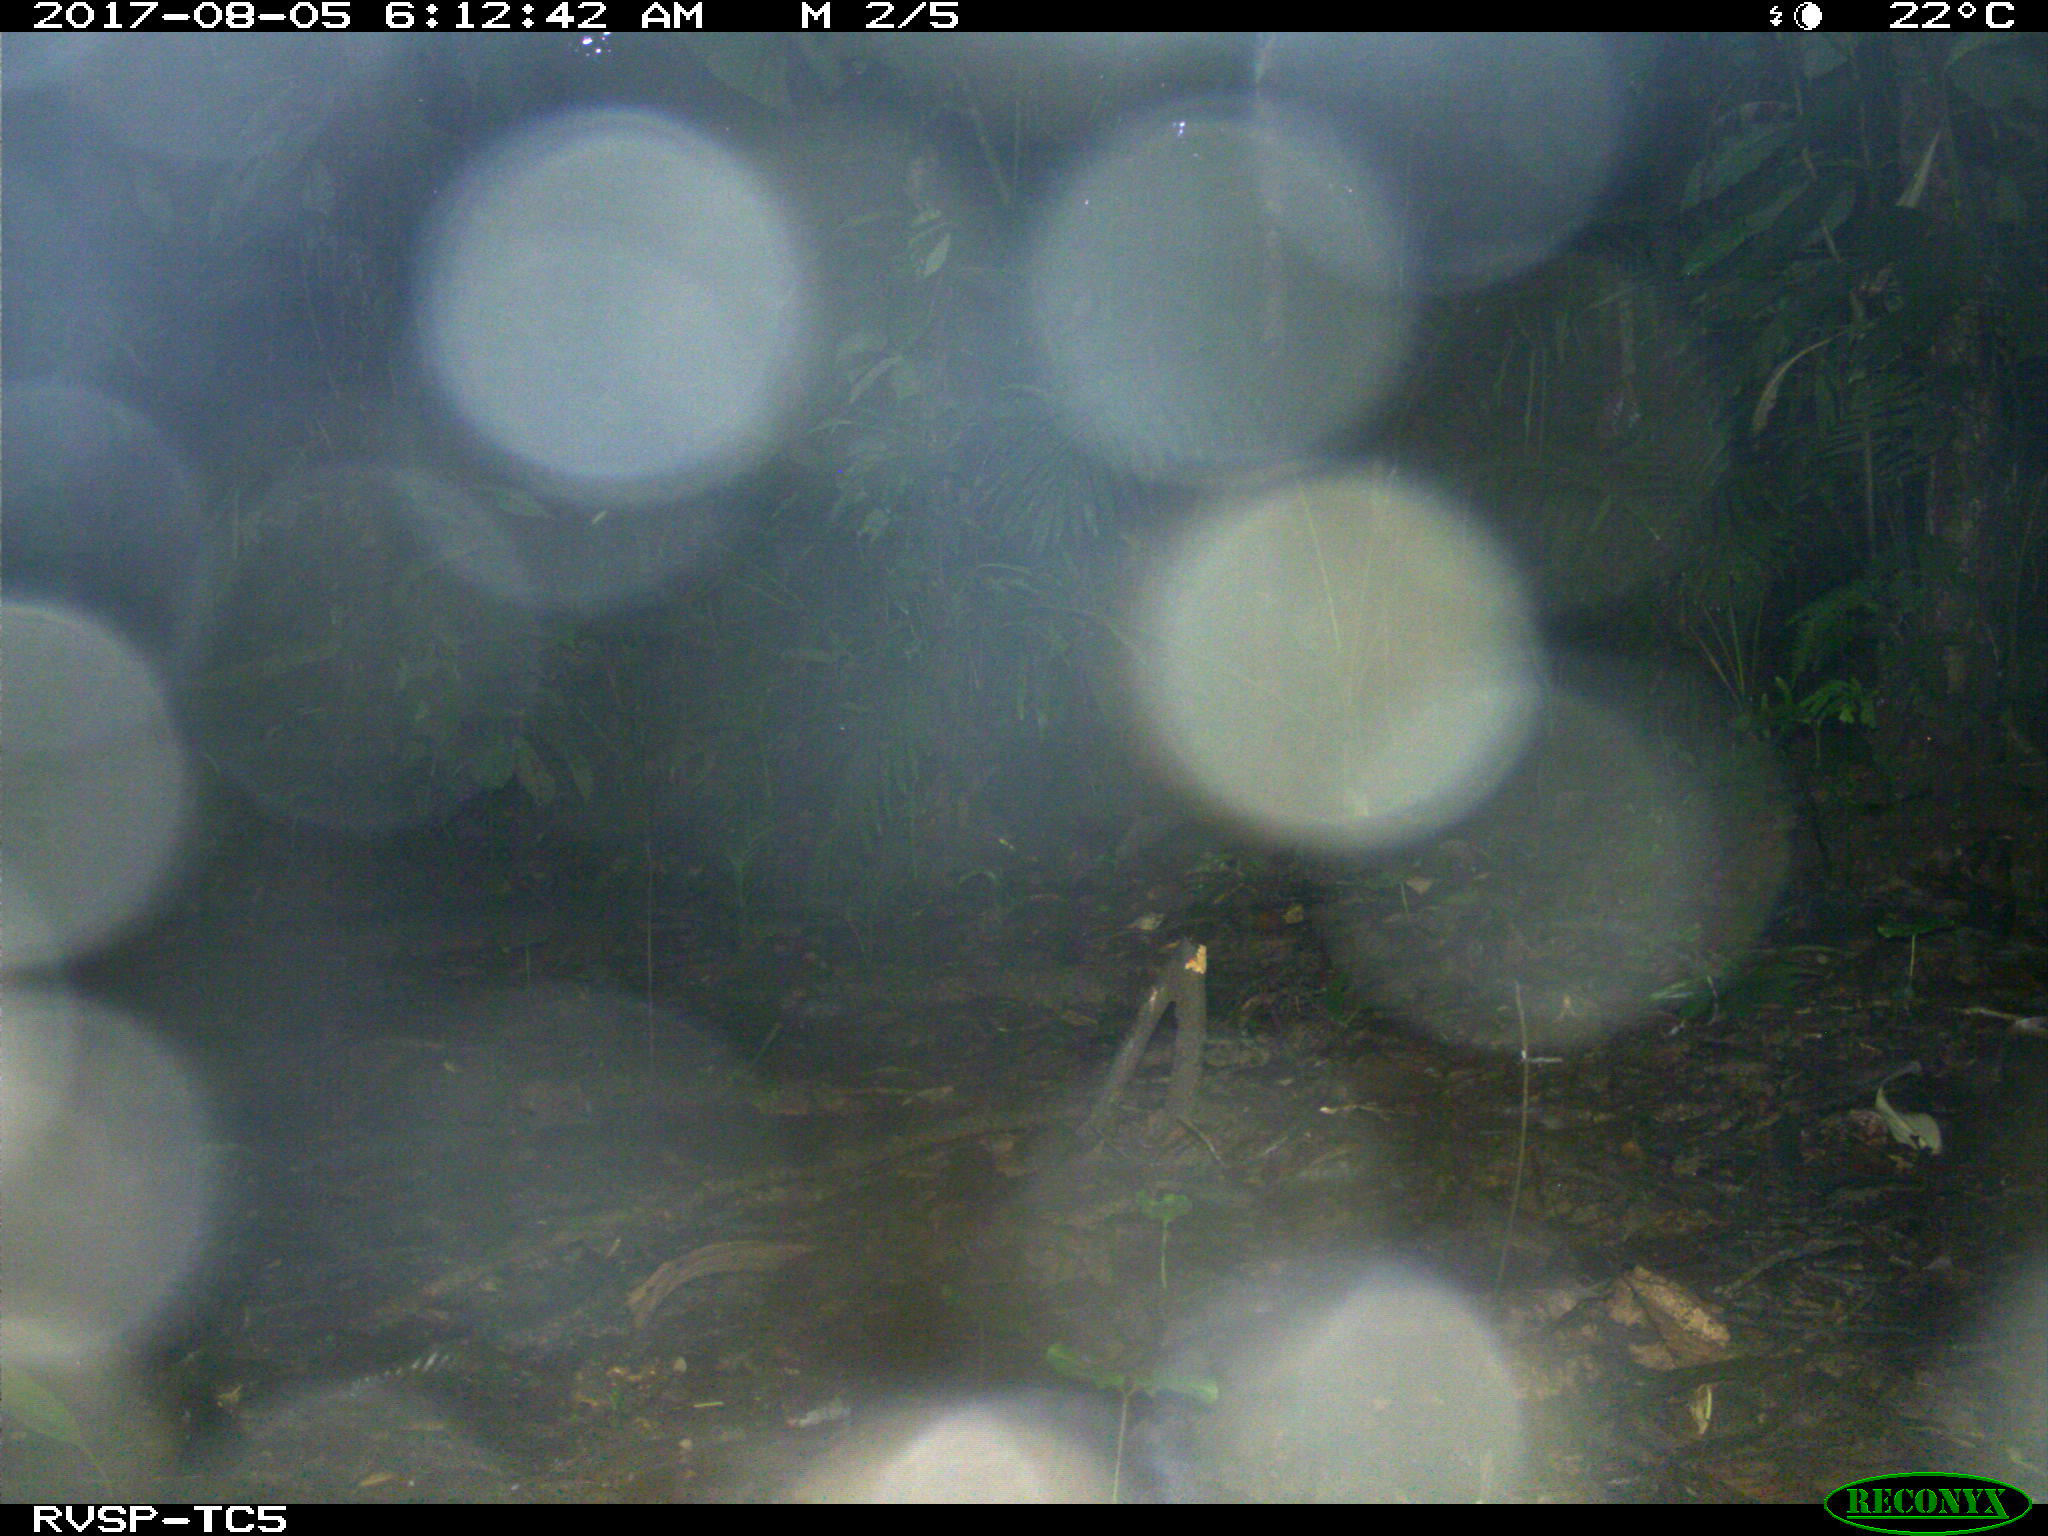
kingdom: Animalia
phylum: Chordata
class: Mammalia
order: Rodentia
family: Dasyproctidae
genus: Dasyprocta
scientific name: Dasyprocta punctata
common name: Central american agouti
